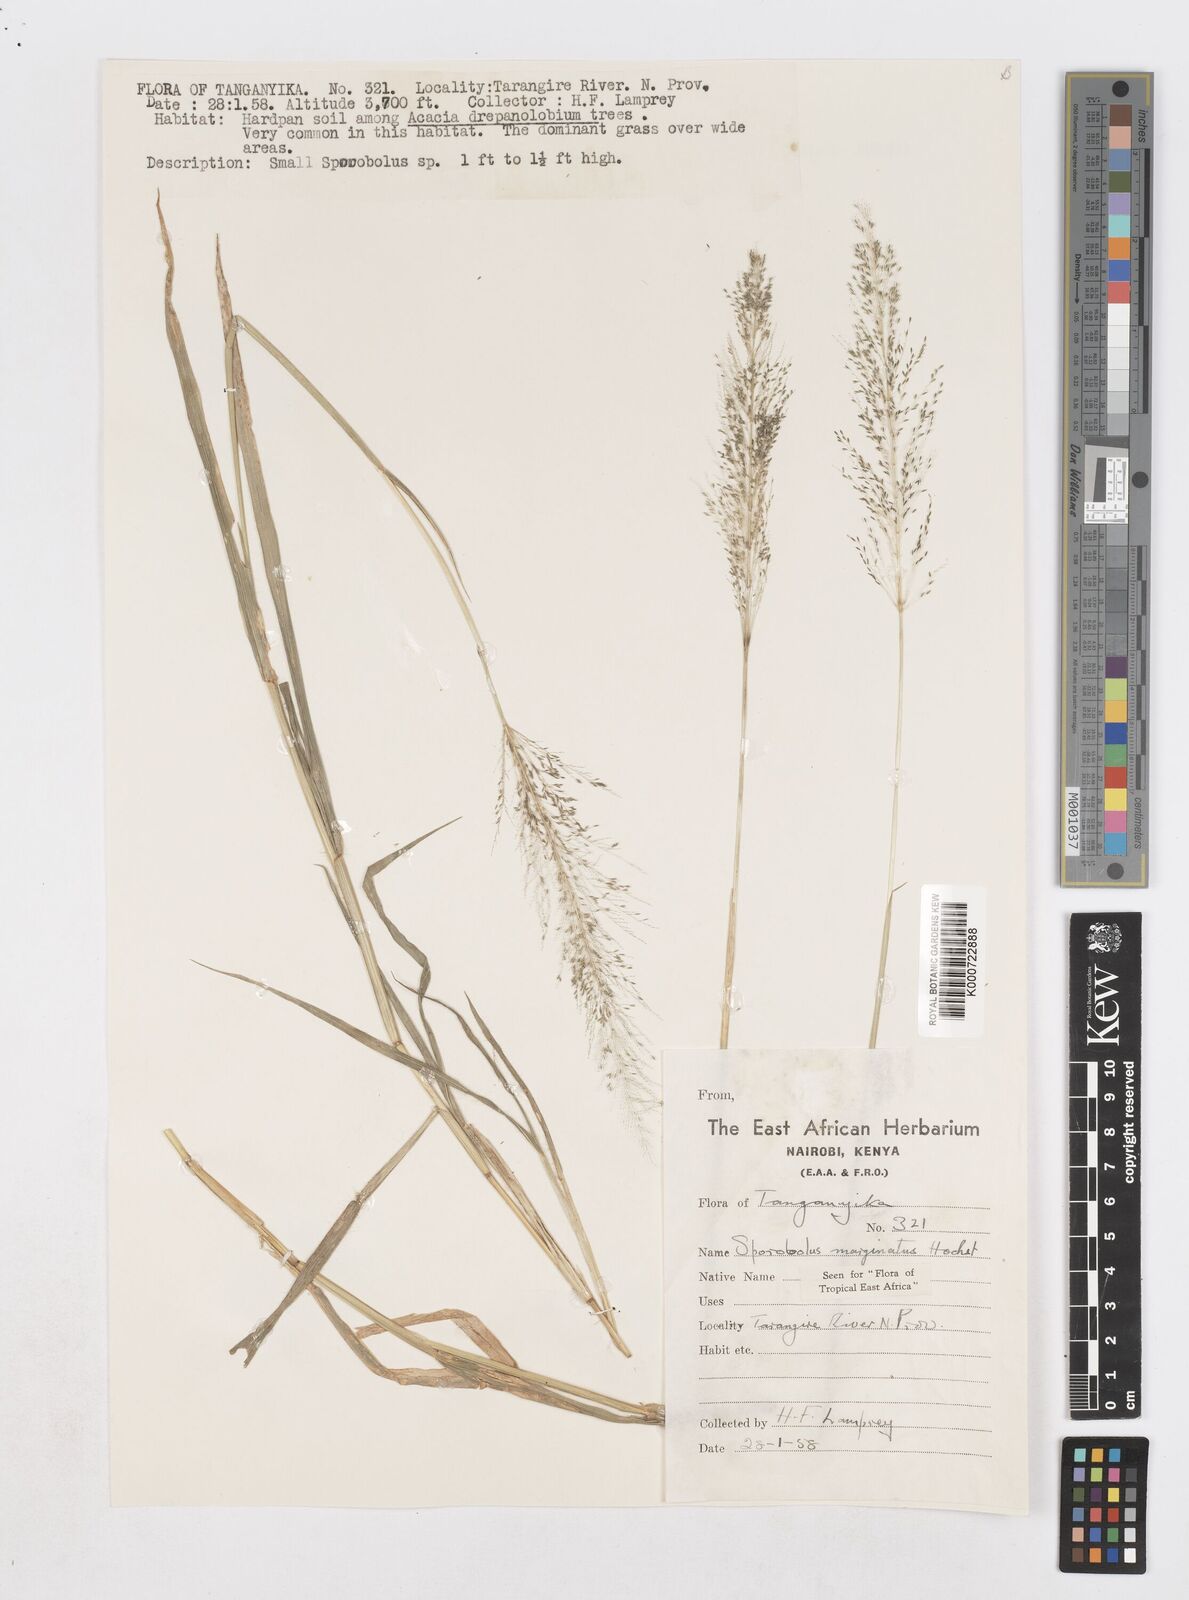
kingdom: Plantae
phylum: Tracheophyta
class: Liliopsida
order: Poales
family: Poaceae
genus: Sporobolus
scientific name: Sporobolus ioclados
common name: Pan dropseed
